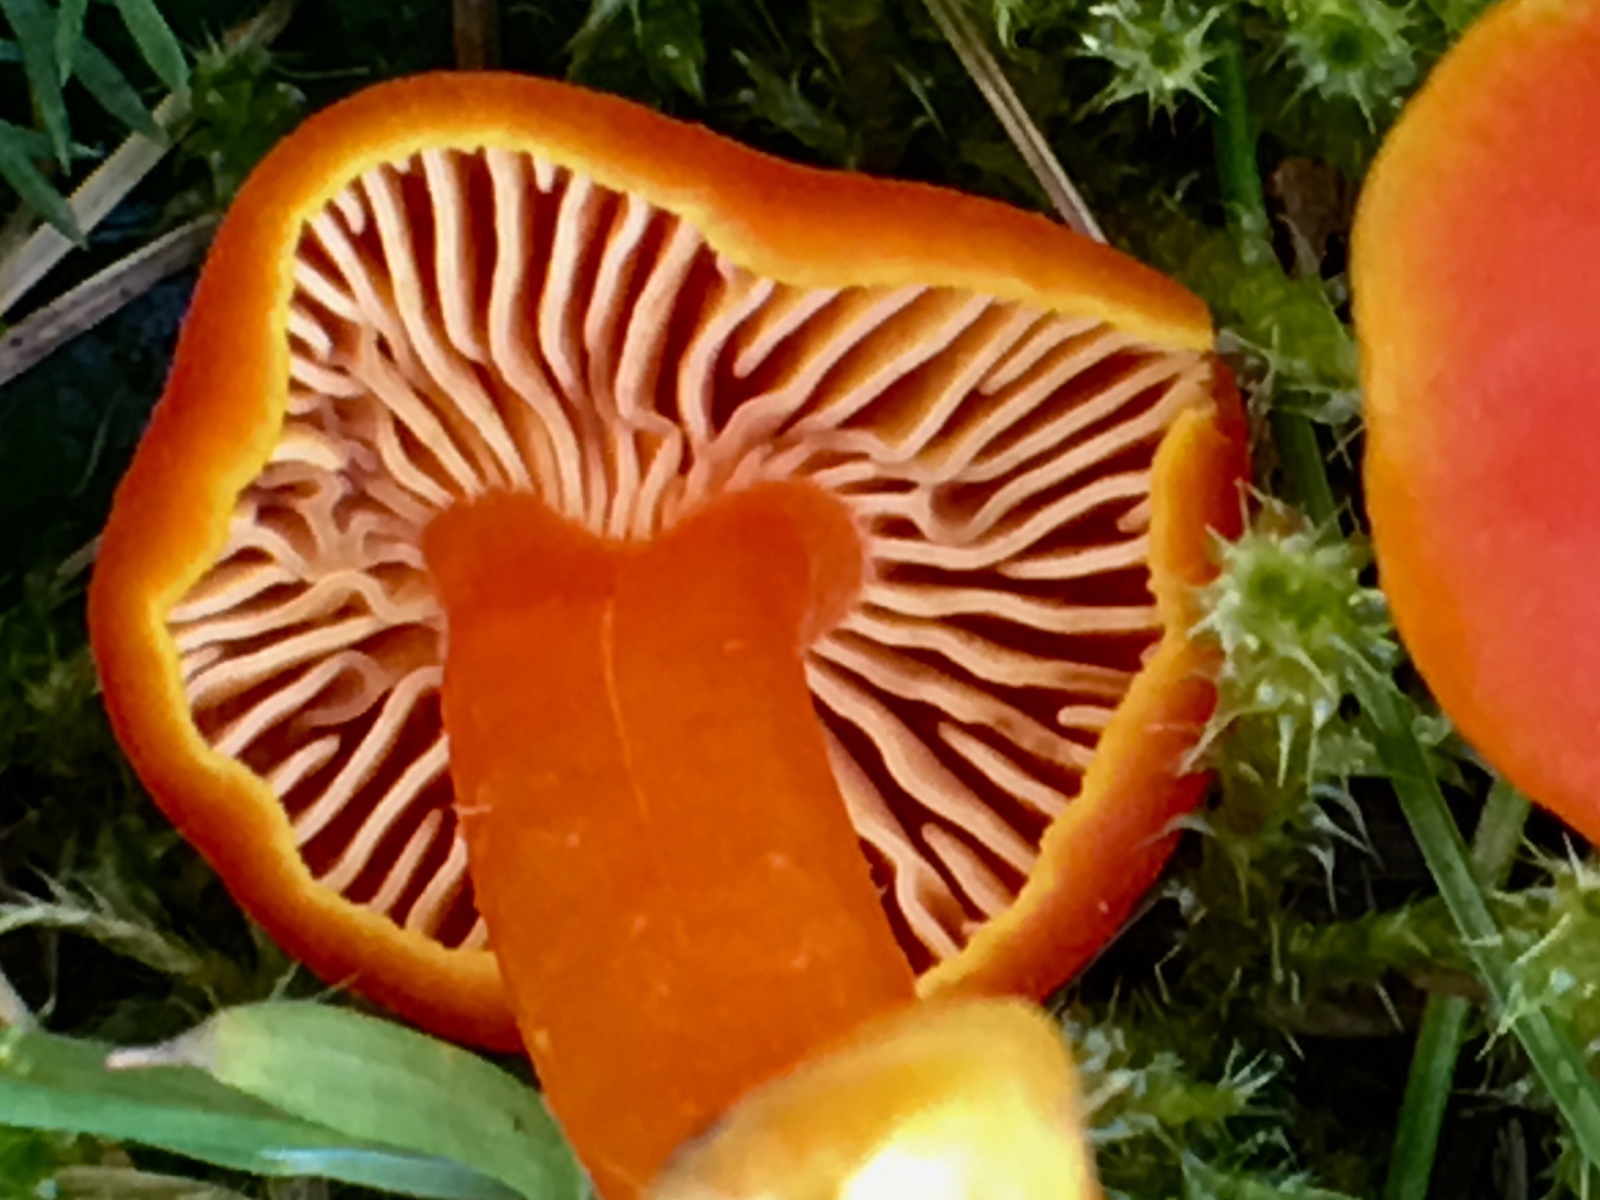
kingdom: Fungi
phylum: Basidiomycota
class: Agaricomycetes
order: Agaricales
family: Hygrophoraceae
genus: Hygrocybe
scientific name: Hygrocybe miniata
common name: mønje-vokshat
